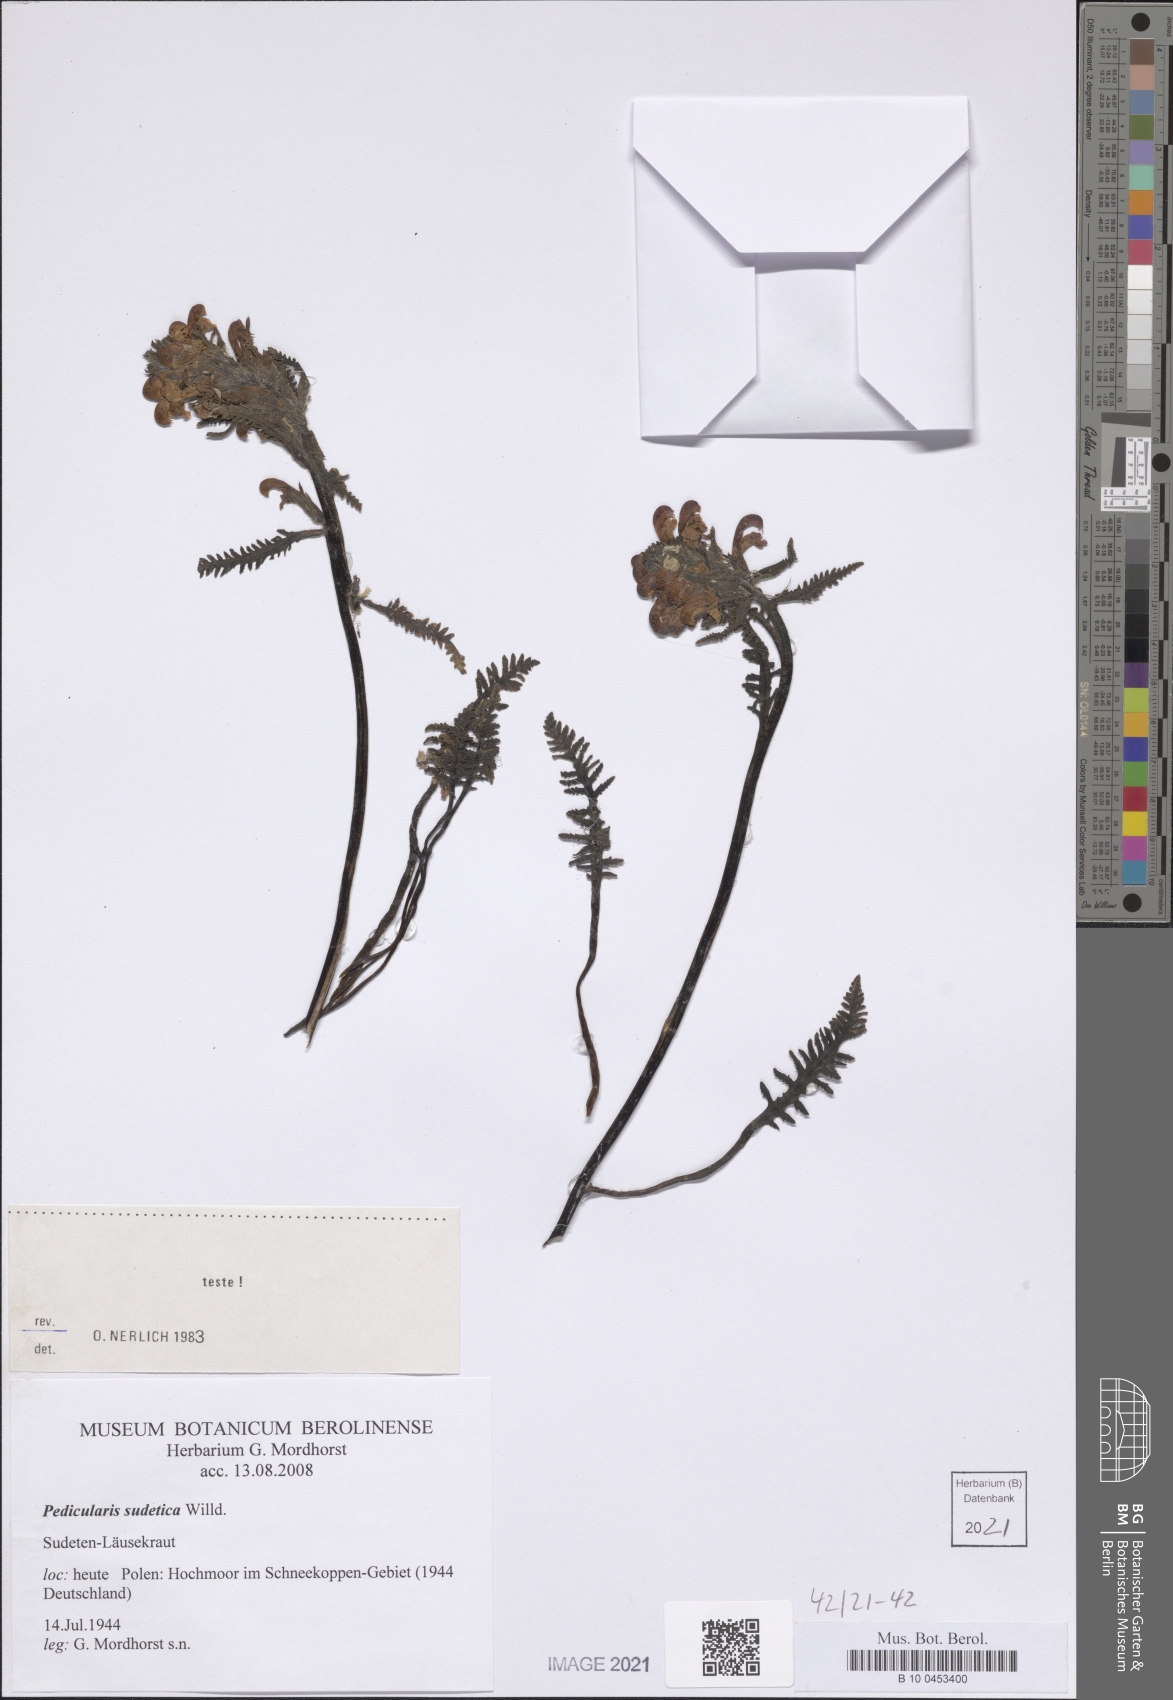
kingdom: Plantae
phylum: Tracheophyta
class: Magnoliopsida
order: Lamiales
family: Orobanchaceae
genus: Pedicularis
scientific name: Pedicularis sudetica
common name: Sudeten lousewort
